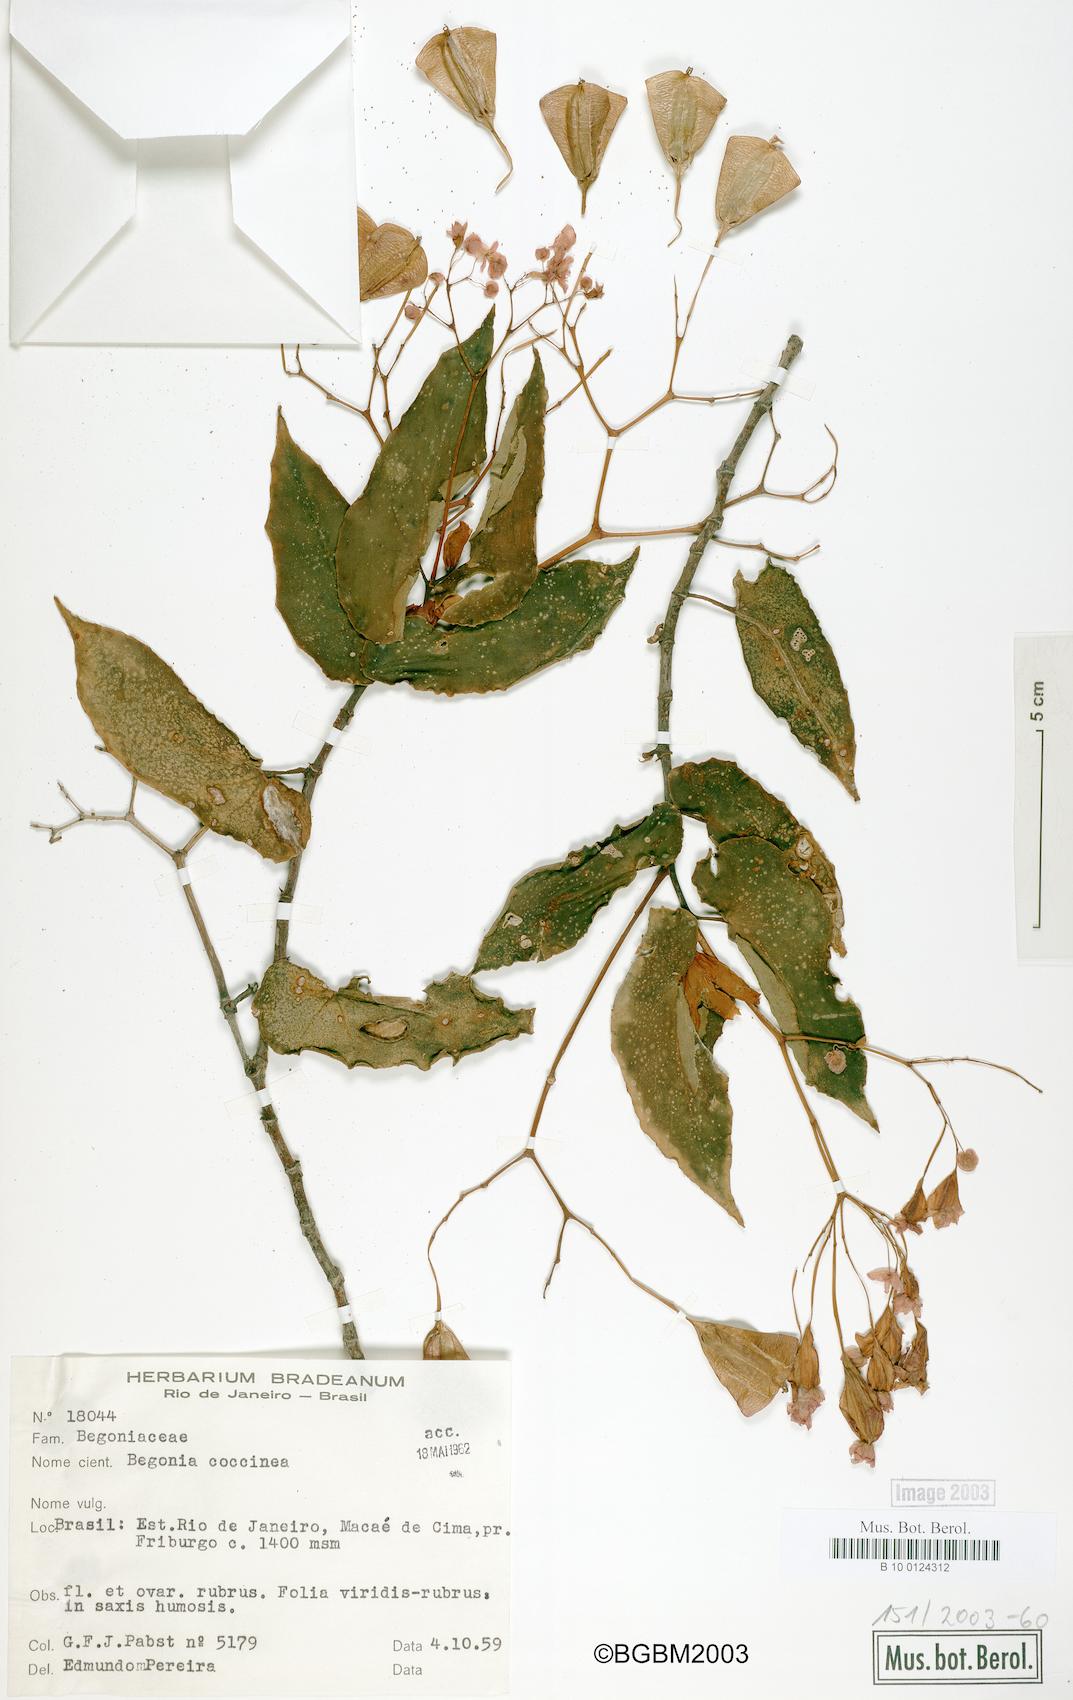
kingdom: Plantae
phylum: Tracheophyta
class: Magnoliopsida
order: Cucurbitales
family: Begoniaceae
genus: Begonia
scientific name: Begonia coccinea
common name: Angel-wing begonia
